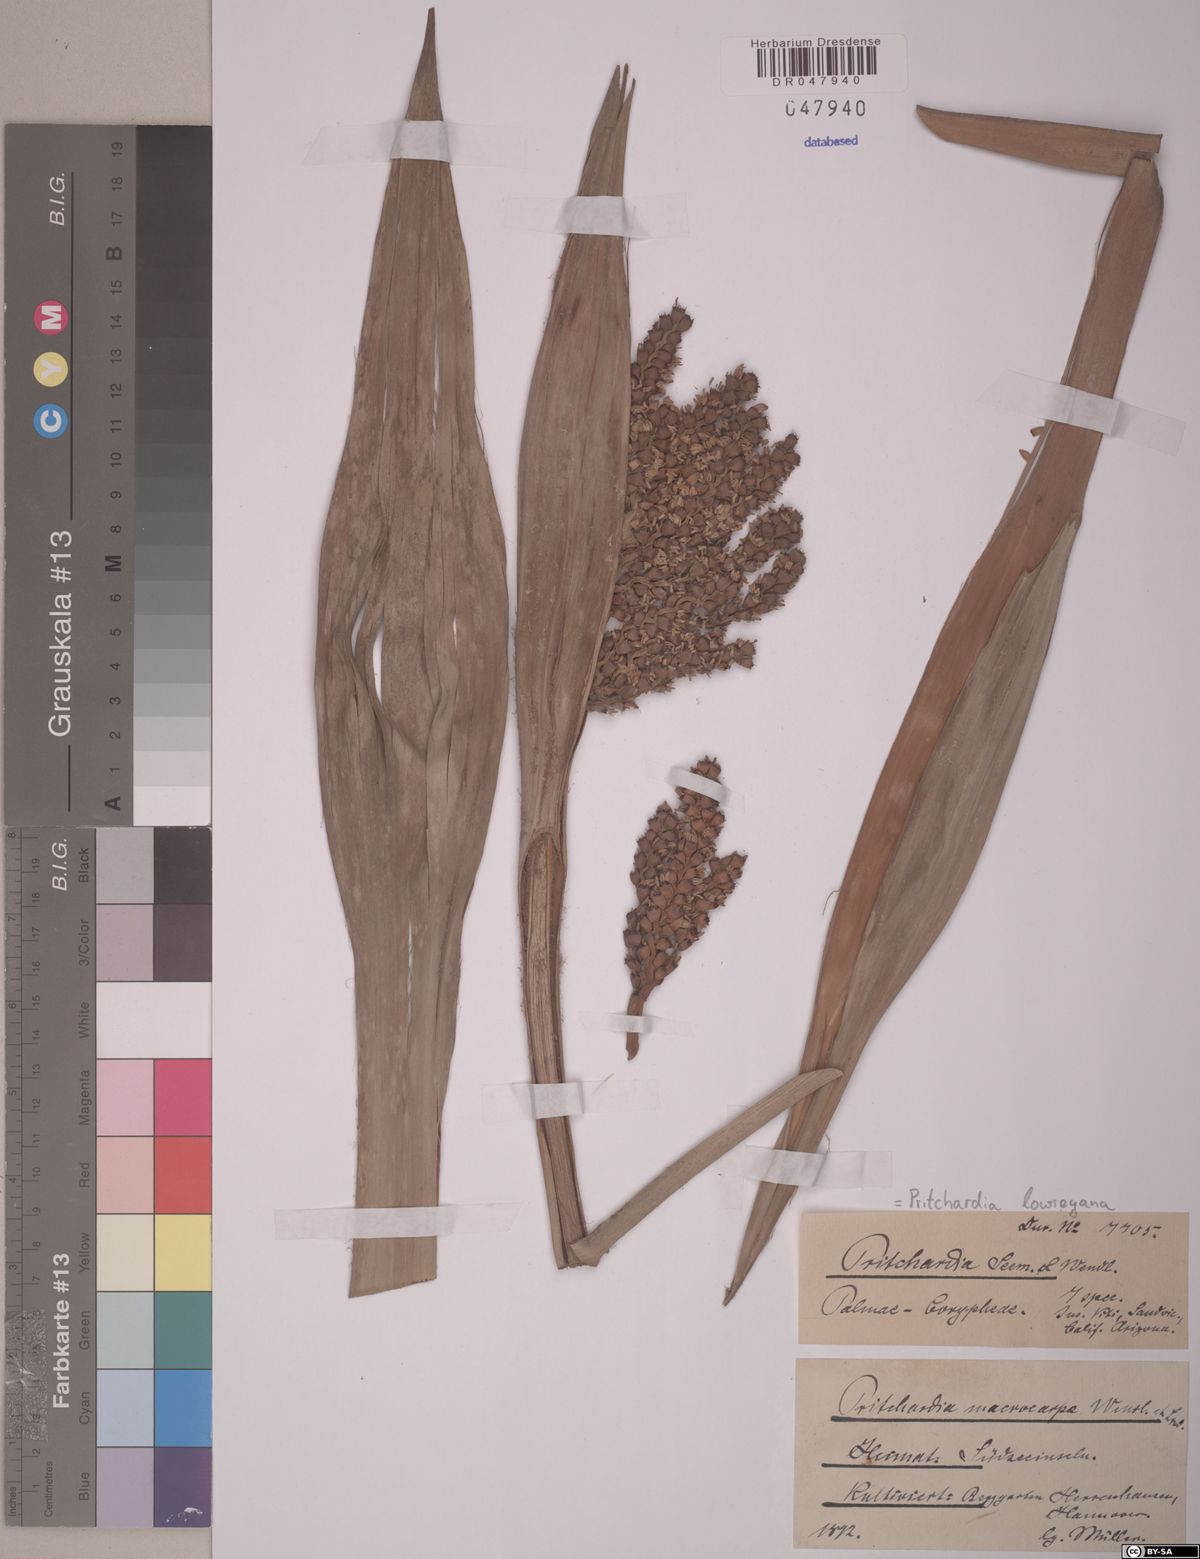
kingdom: Plantae
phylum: Tracheophyta
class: Liliopsida
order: Arecales
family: Arecaceae
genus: Pritchardia
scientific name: Pritchardia lowreyana
